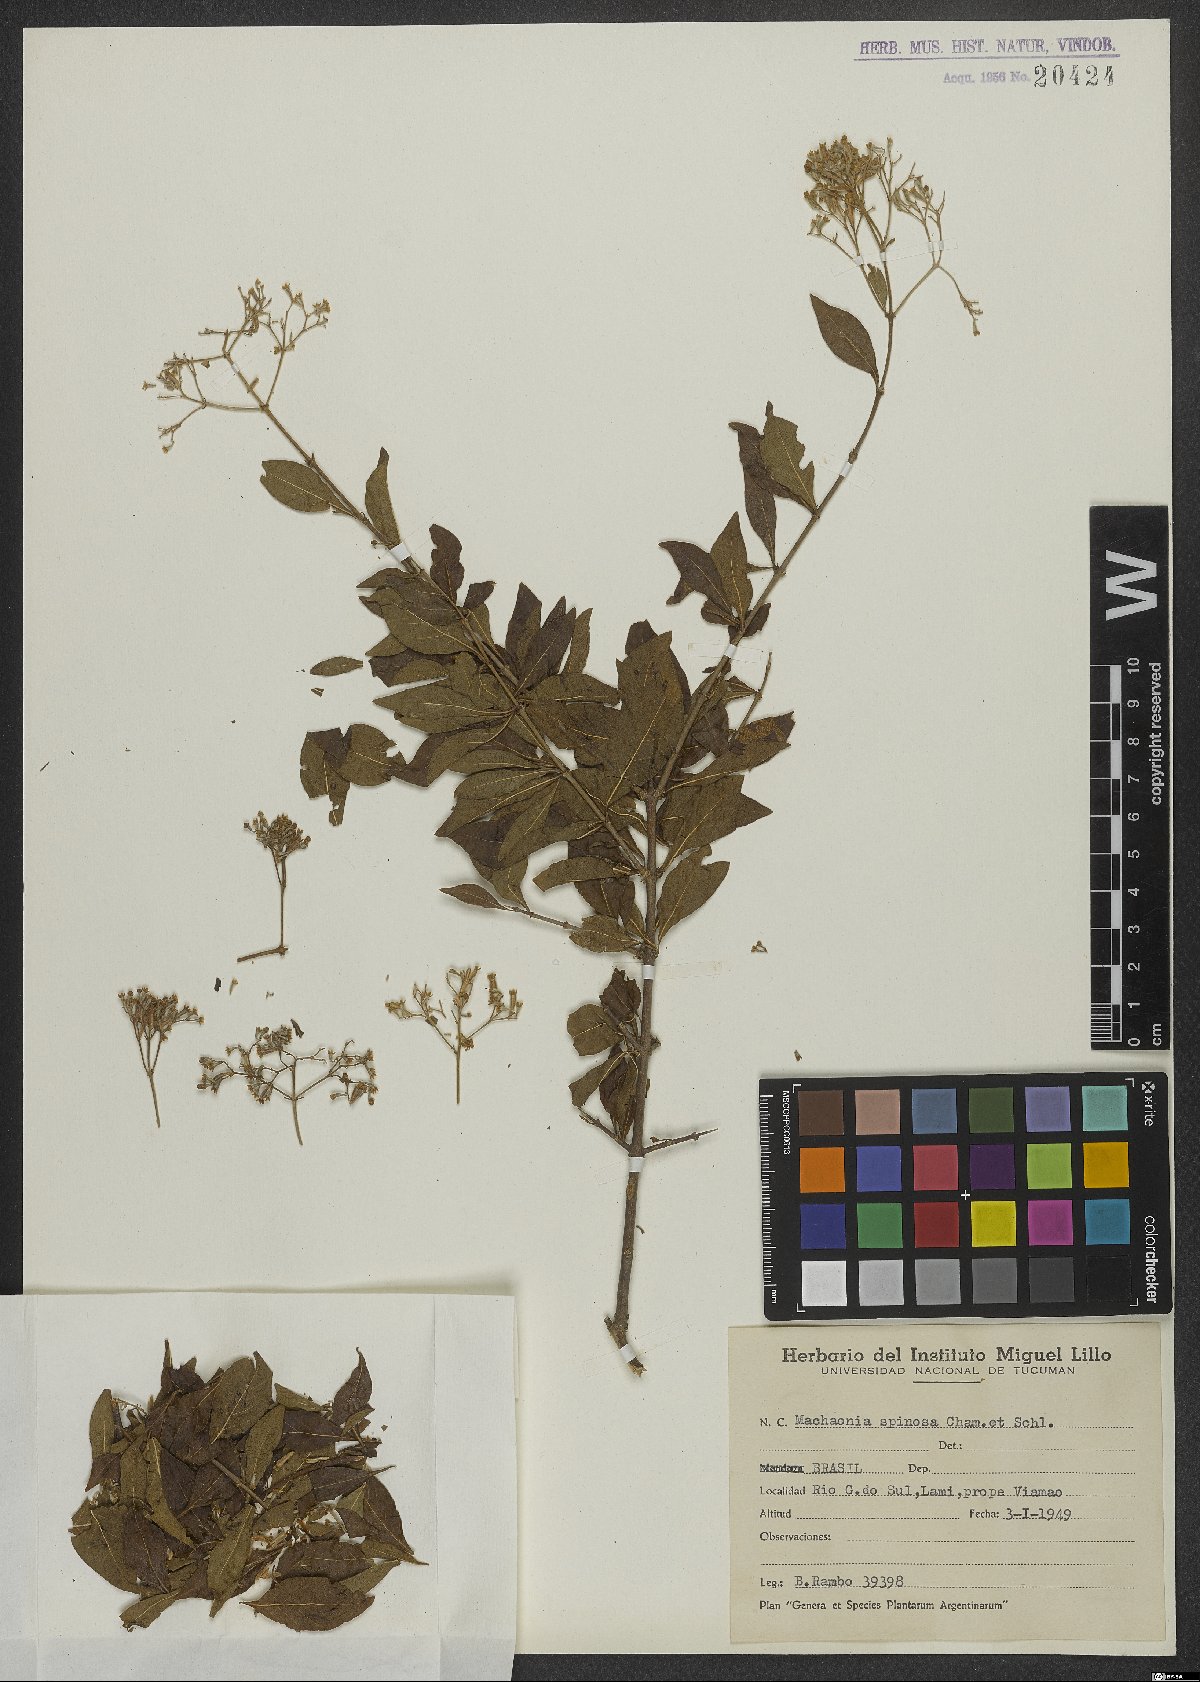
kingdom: Plantae
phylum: Tracheophyta
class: Magnoliopsida
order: Gentianales
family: Rubiaceae
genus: Machaonia
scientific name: Machaonia brasiliensis
